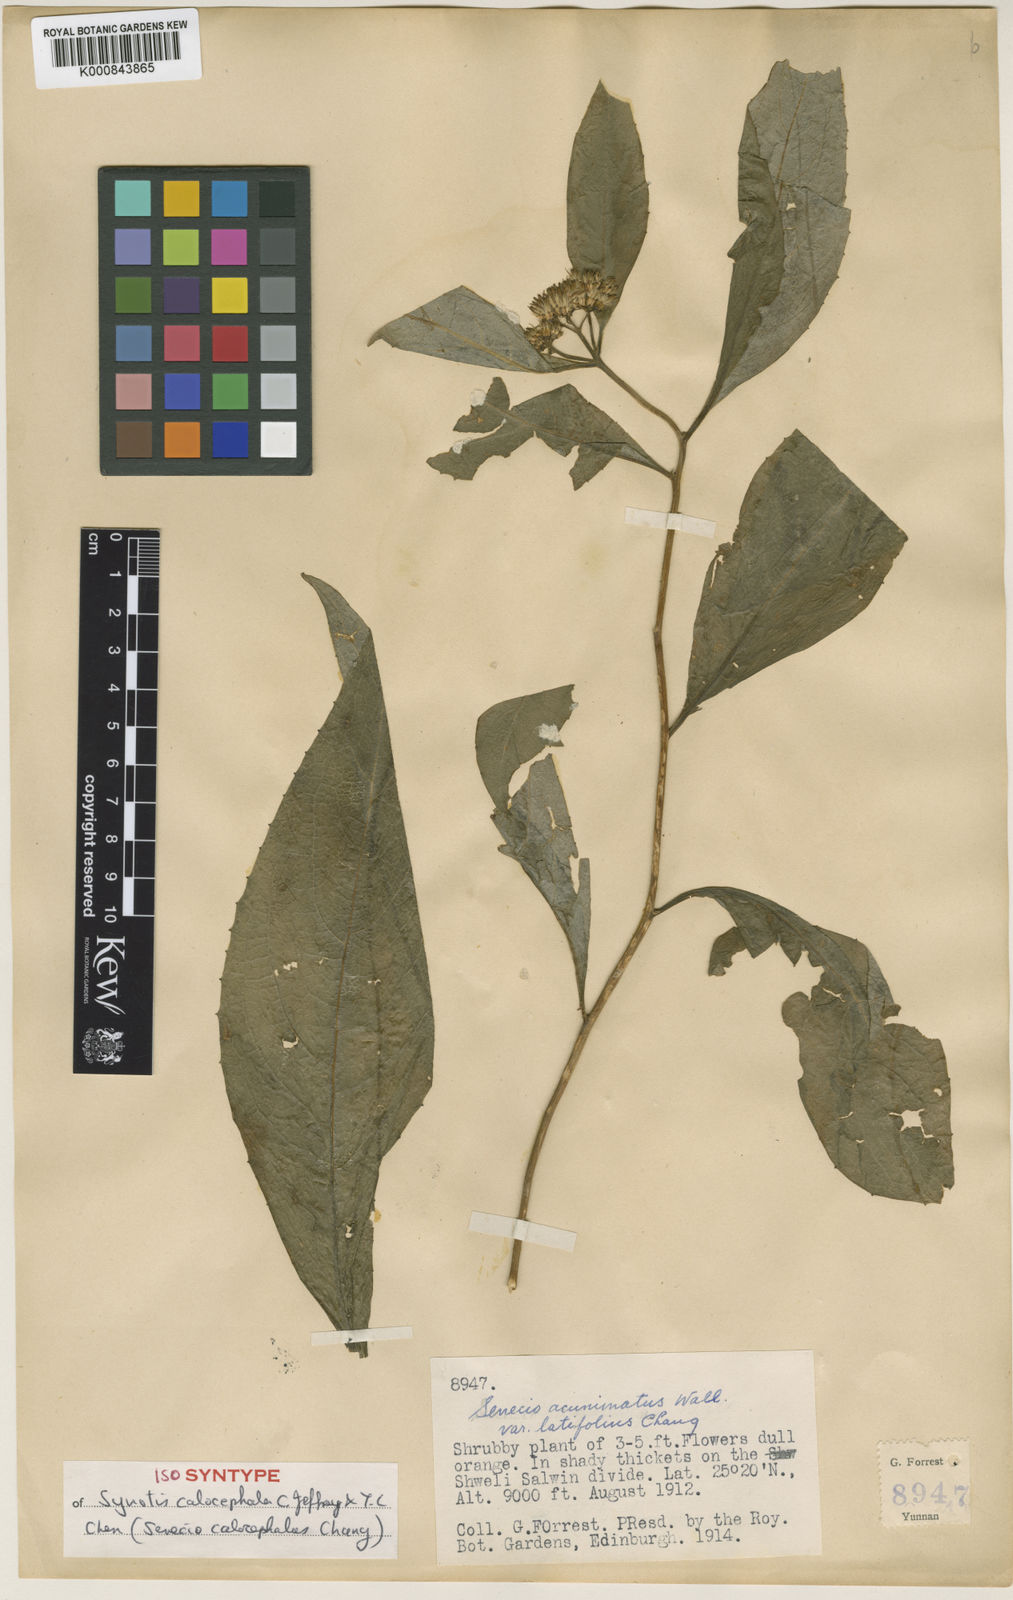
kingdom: Plantae
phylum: Tracheophyta
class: Magnoliopsida
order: Asterales
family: Asteraceae
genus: Synotis
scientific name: Synotis calocephala
